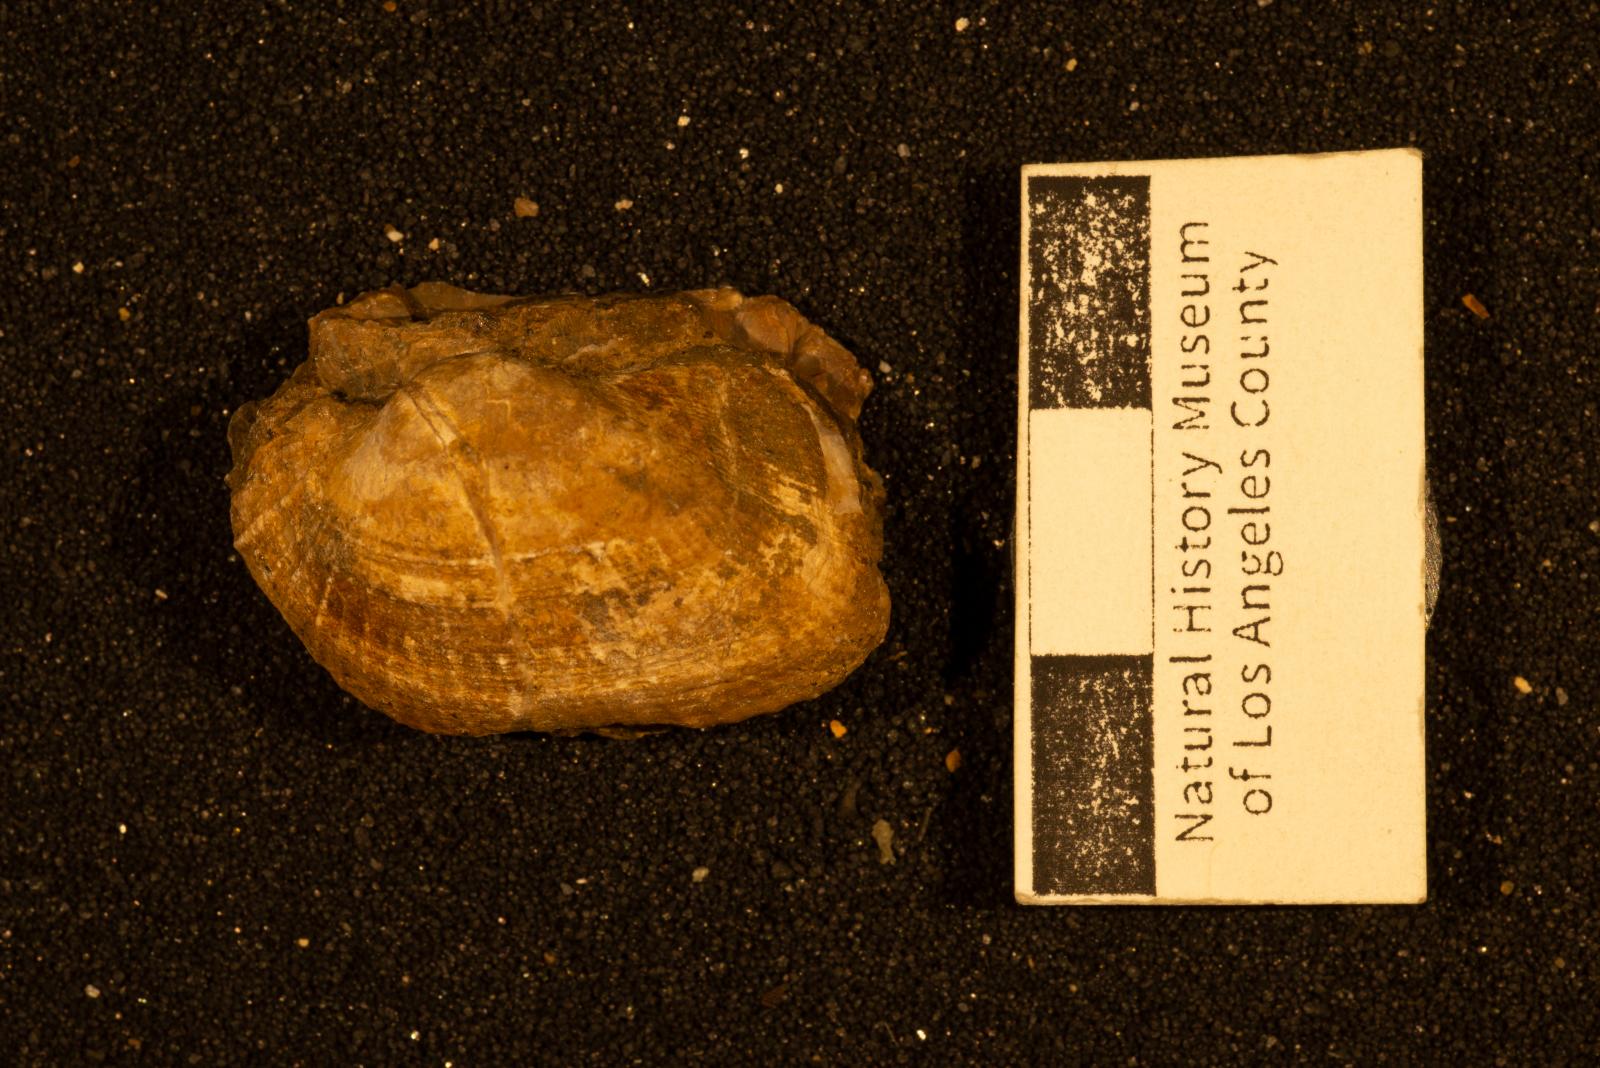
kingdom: Animalia
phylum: Mollusca
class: Bivalvia
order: Arcida
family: Arcidae
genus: Indogrammatodon
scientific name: Indogrammatodon
